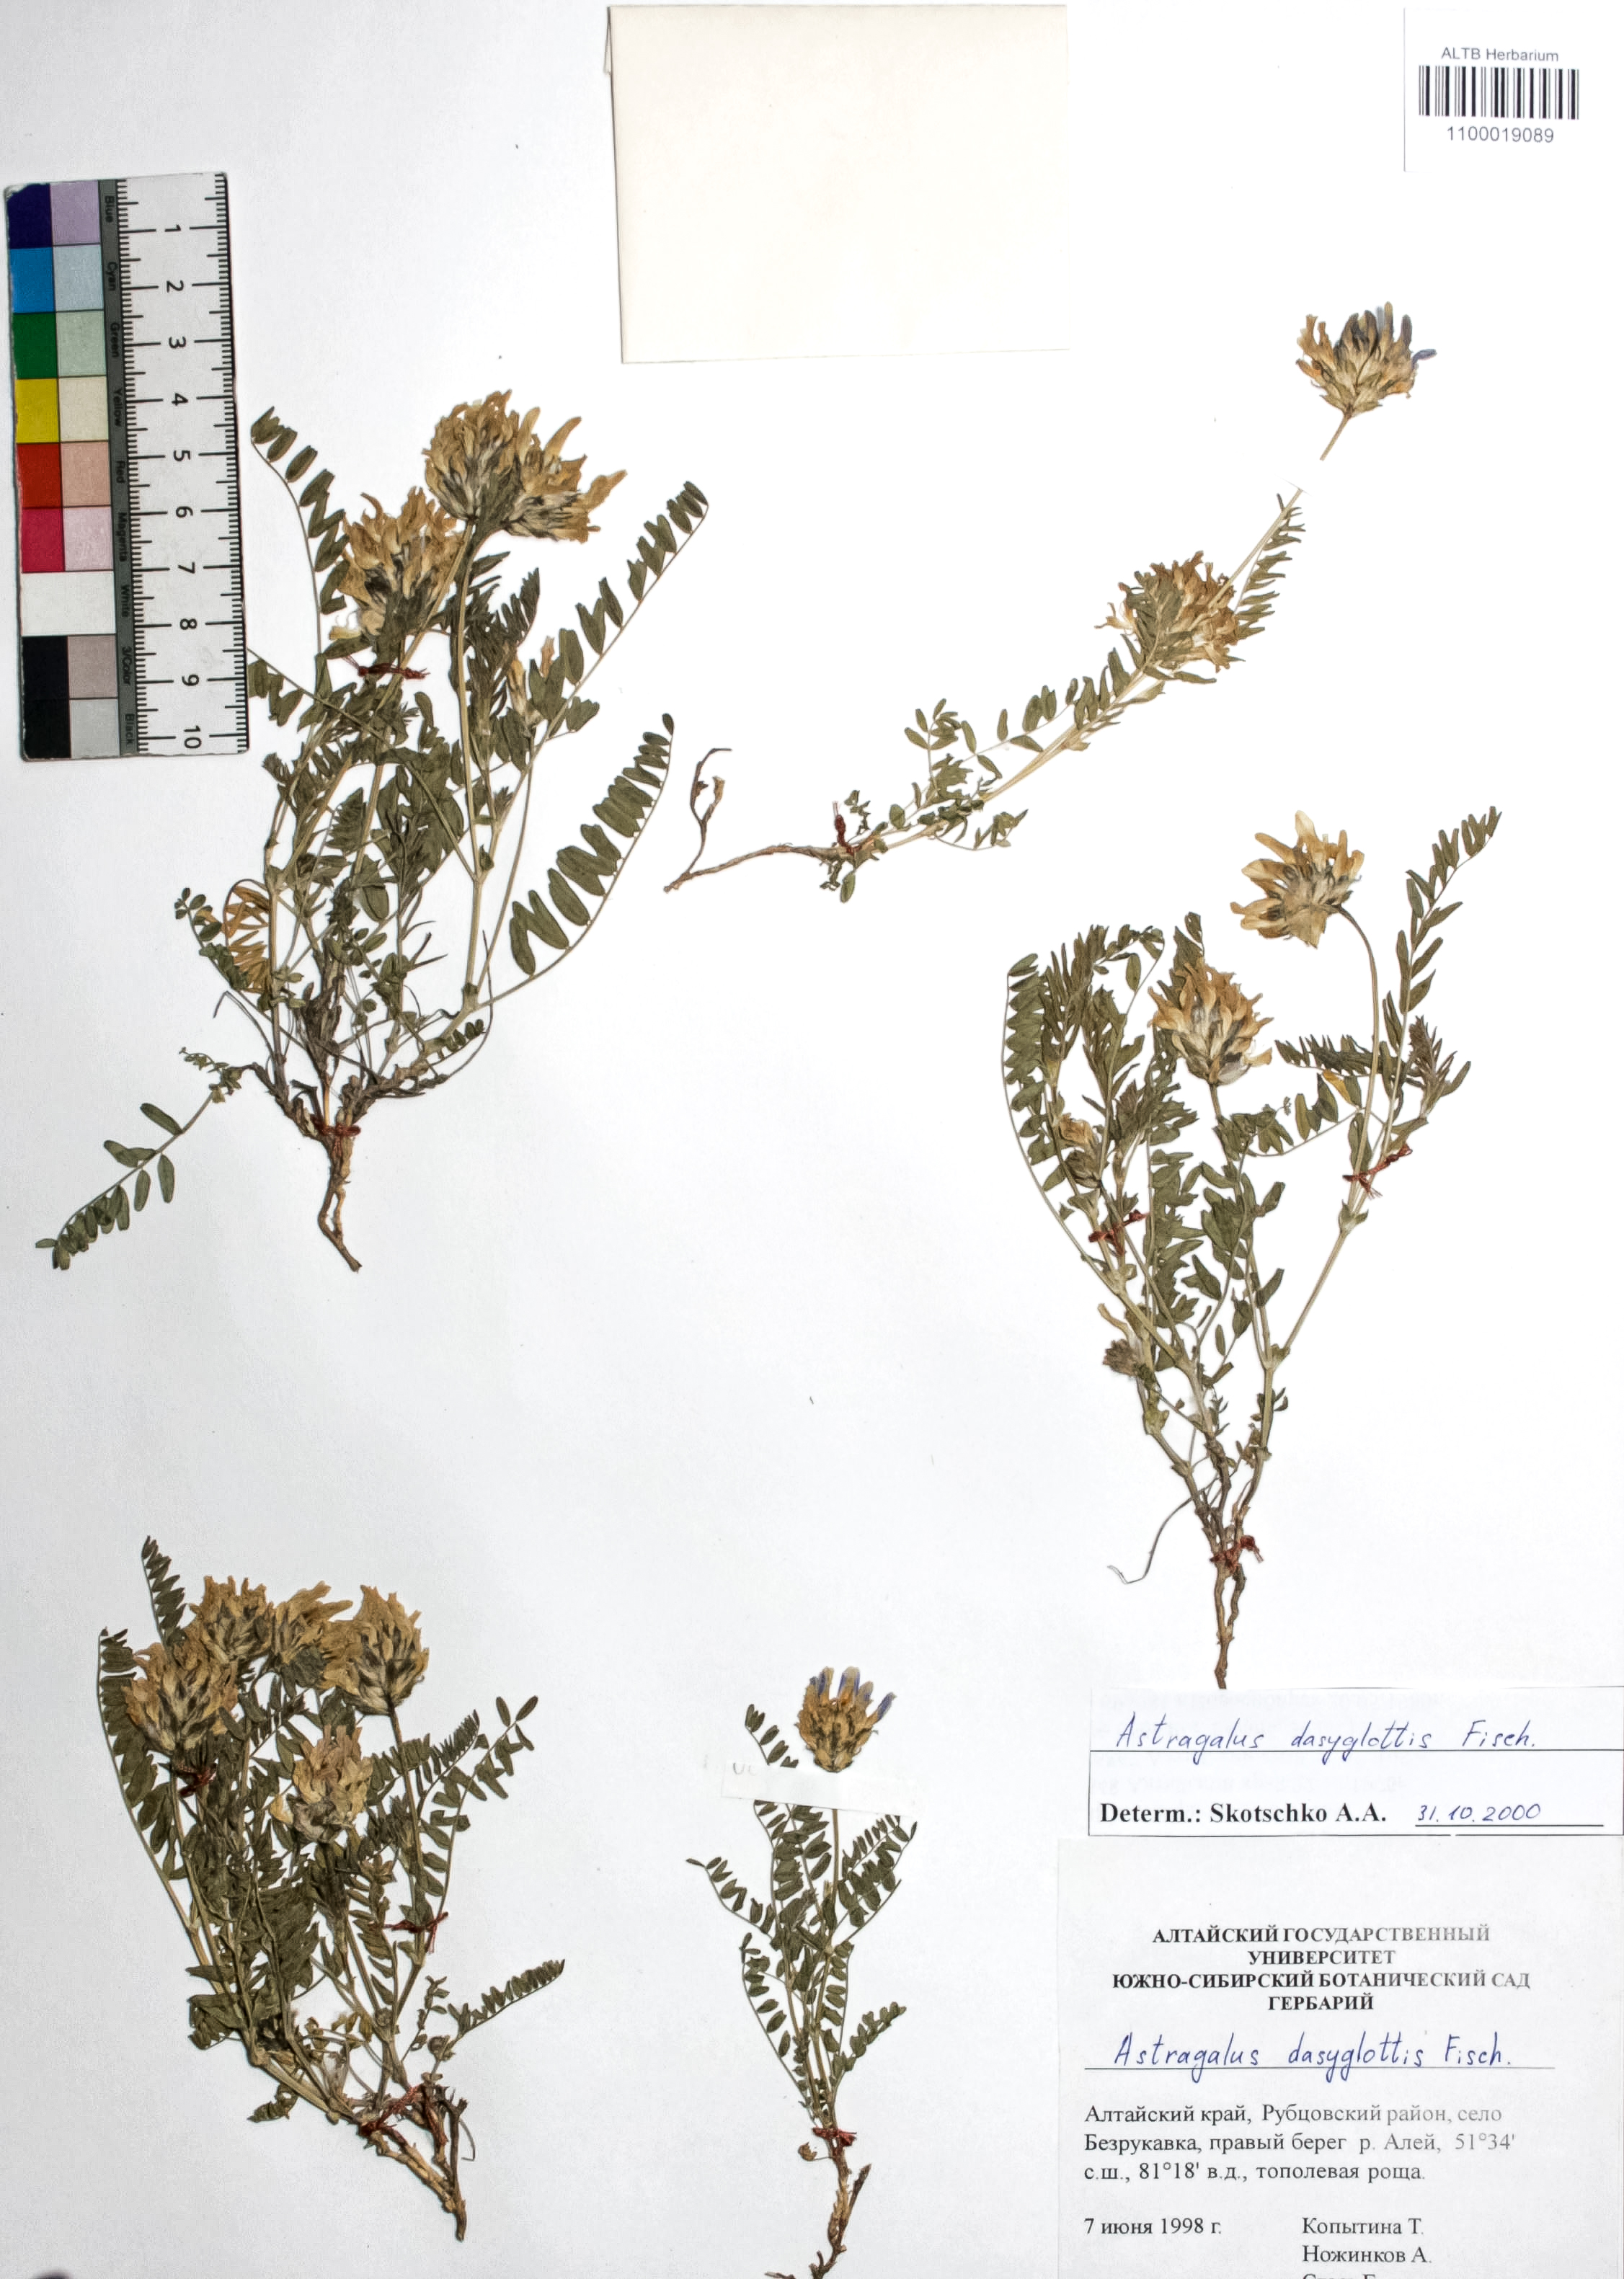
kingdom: Plantae
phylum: Tracheophyta
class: Magnoliopsida
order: Fabales
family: Fabaceae
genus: Astragalus
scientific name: Astragalus agrestis
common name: Field milk-vetch
